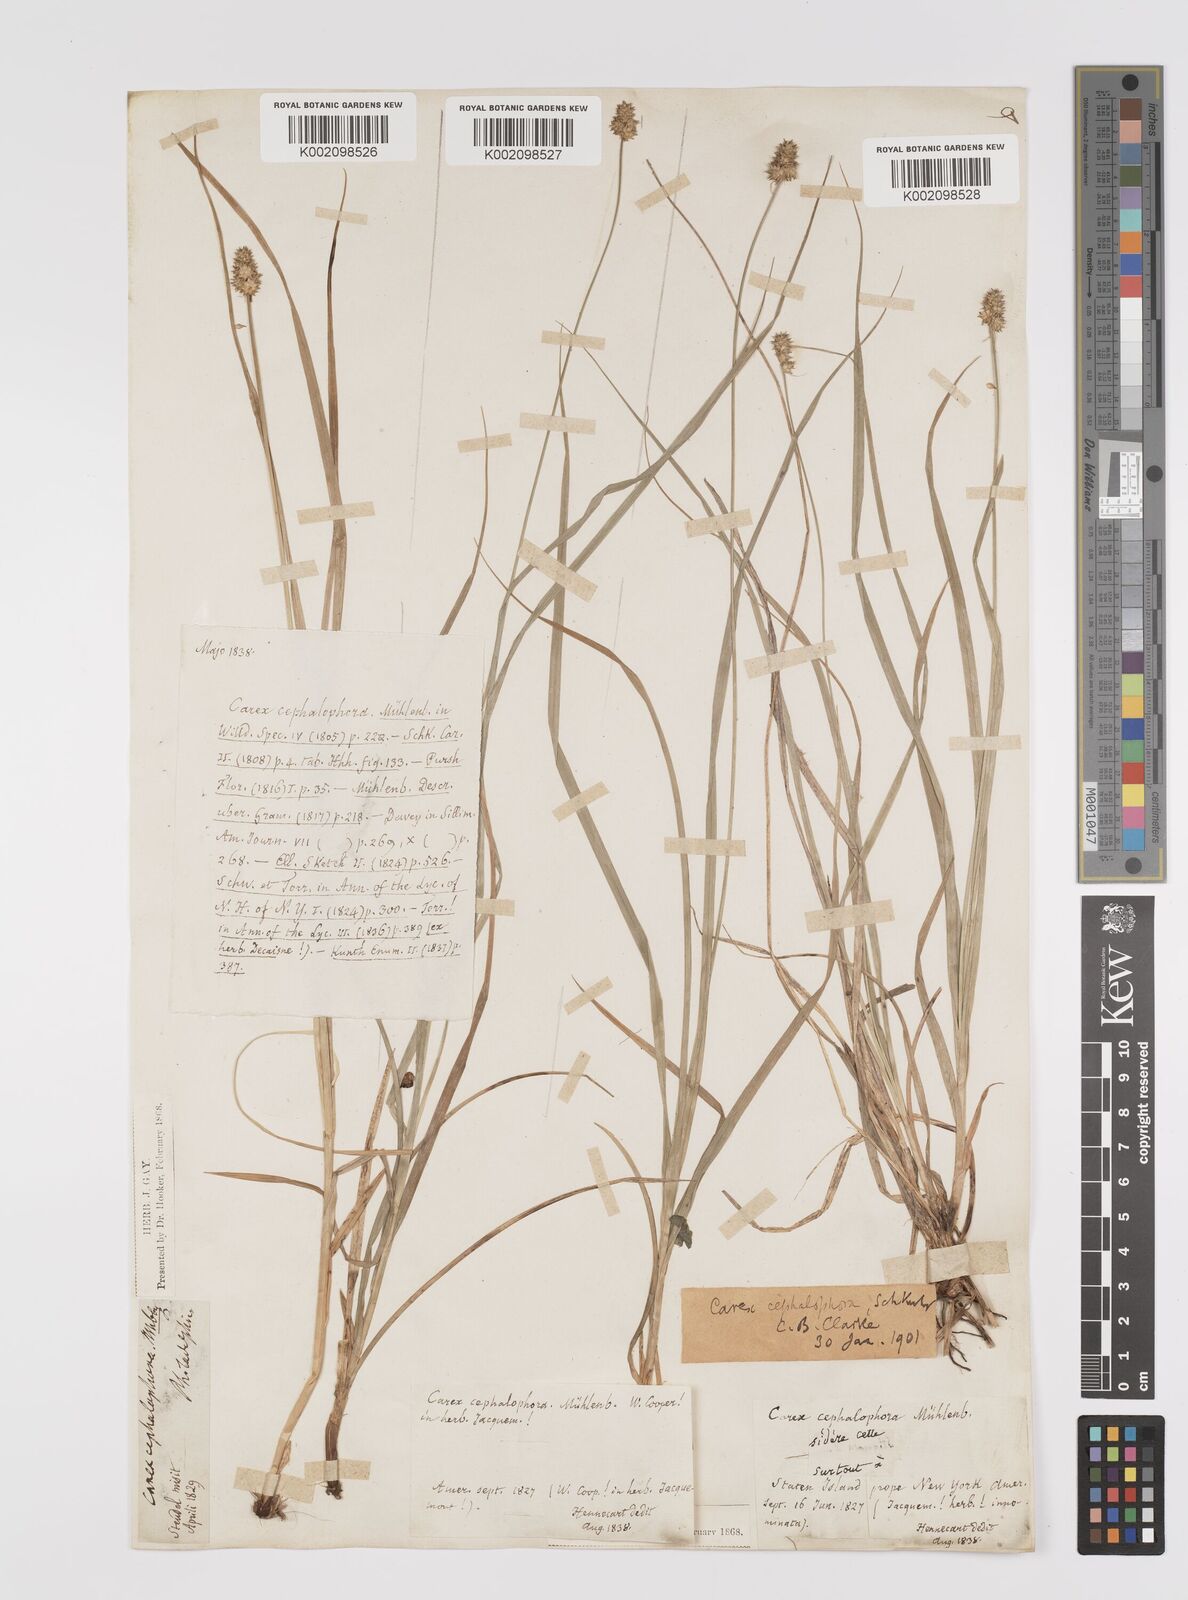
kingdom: Plantae
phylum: Tracheophyta
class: Liliopsida
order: Poales
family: Cyperaceae
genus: Carex
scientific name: Carex cephalophora
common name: Oval-headed sedge
